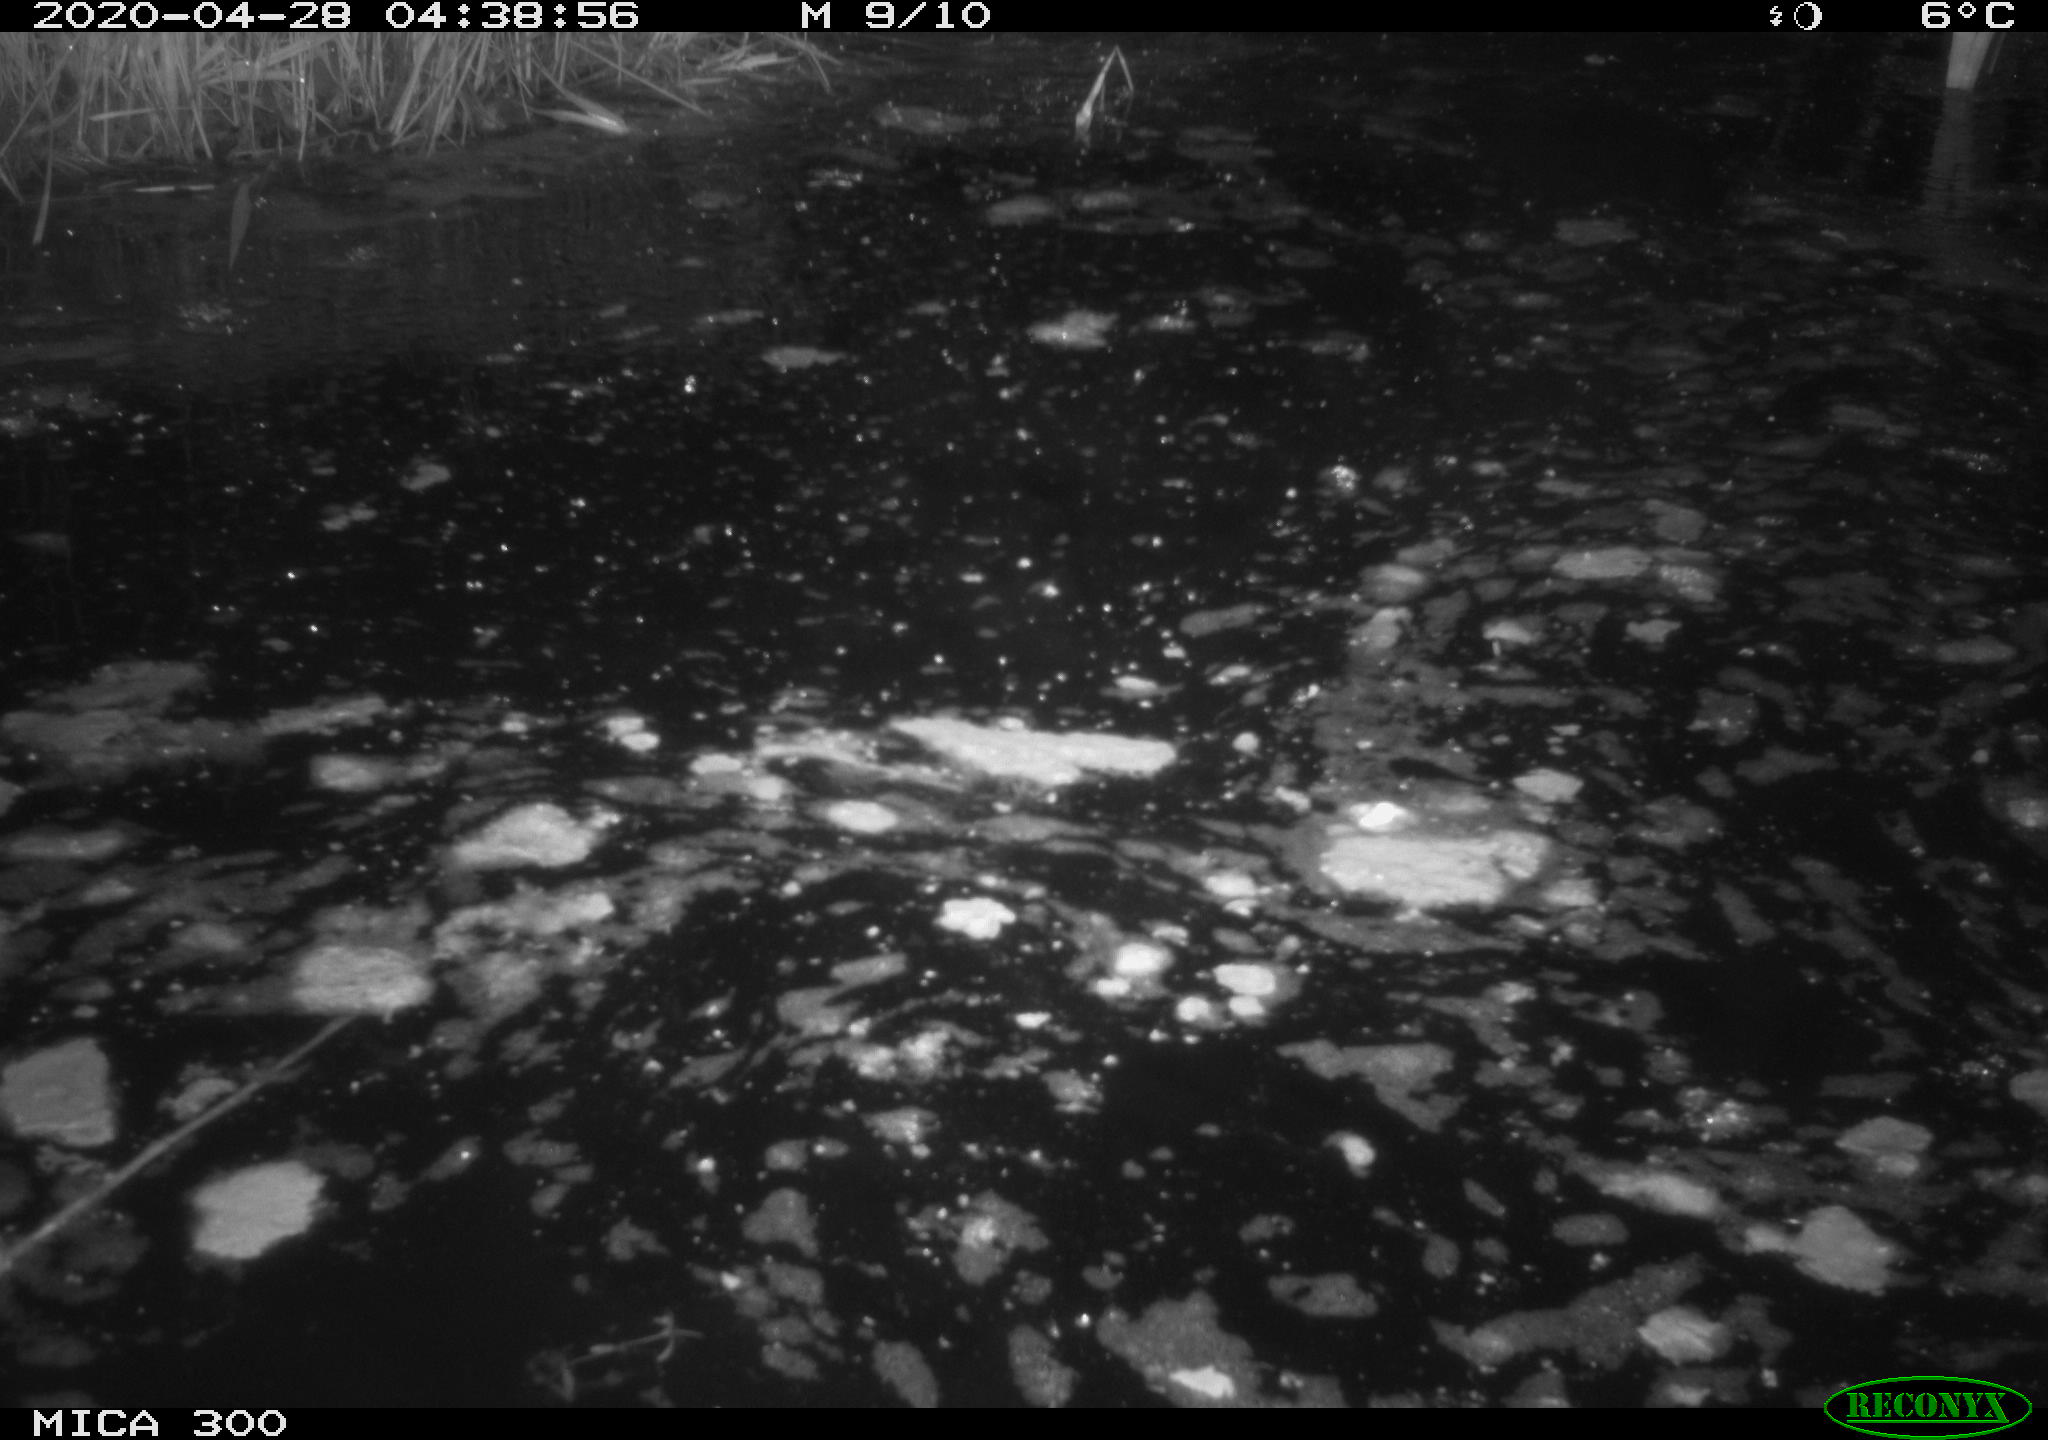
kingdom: Animalia
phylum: Chordata
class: Mammalia
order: Rodentia
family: Castoridae
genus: Castor
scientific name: Castor fiber
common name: Eurasian beaver
